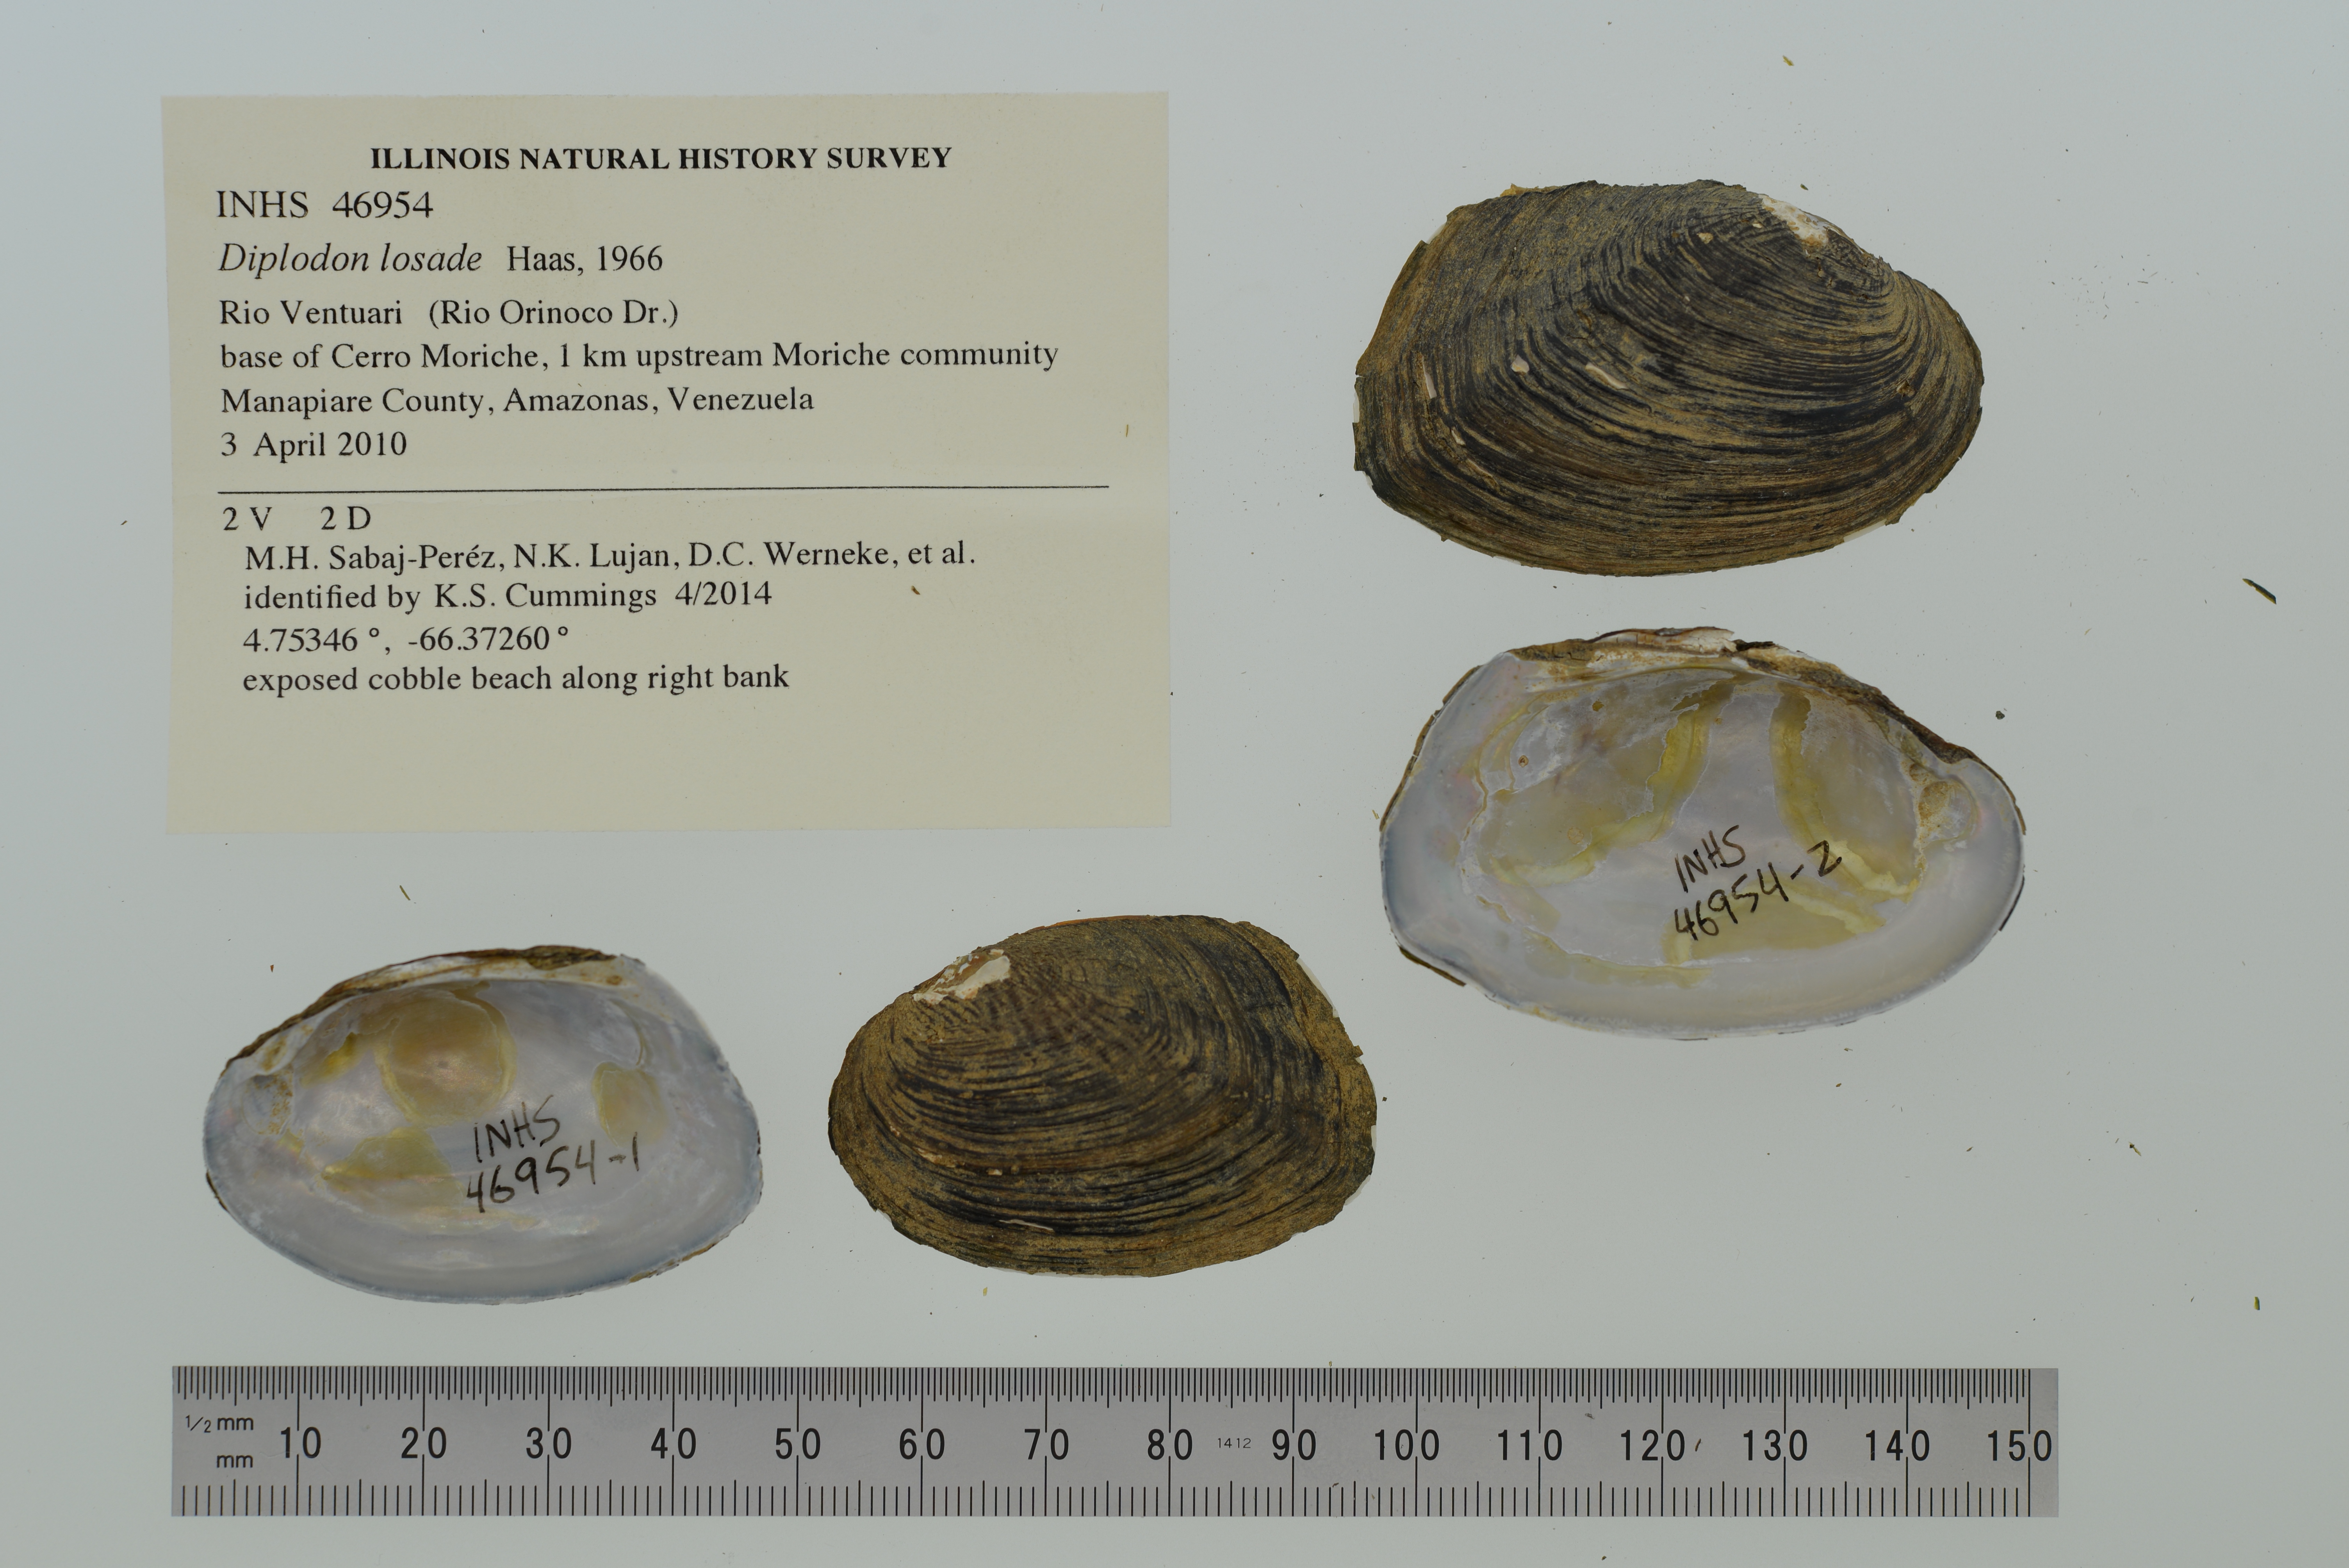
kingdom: Animalia
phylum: Mollusca
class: Bivalvia
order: Unionida
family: Hyriidae
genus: Diplodon
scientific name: Diplodon losadae
